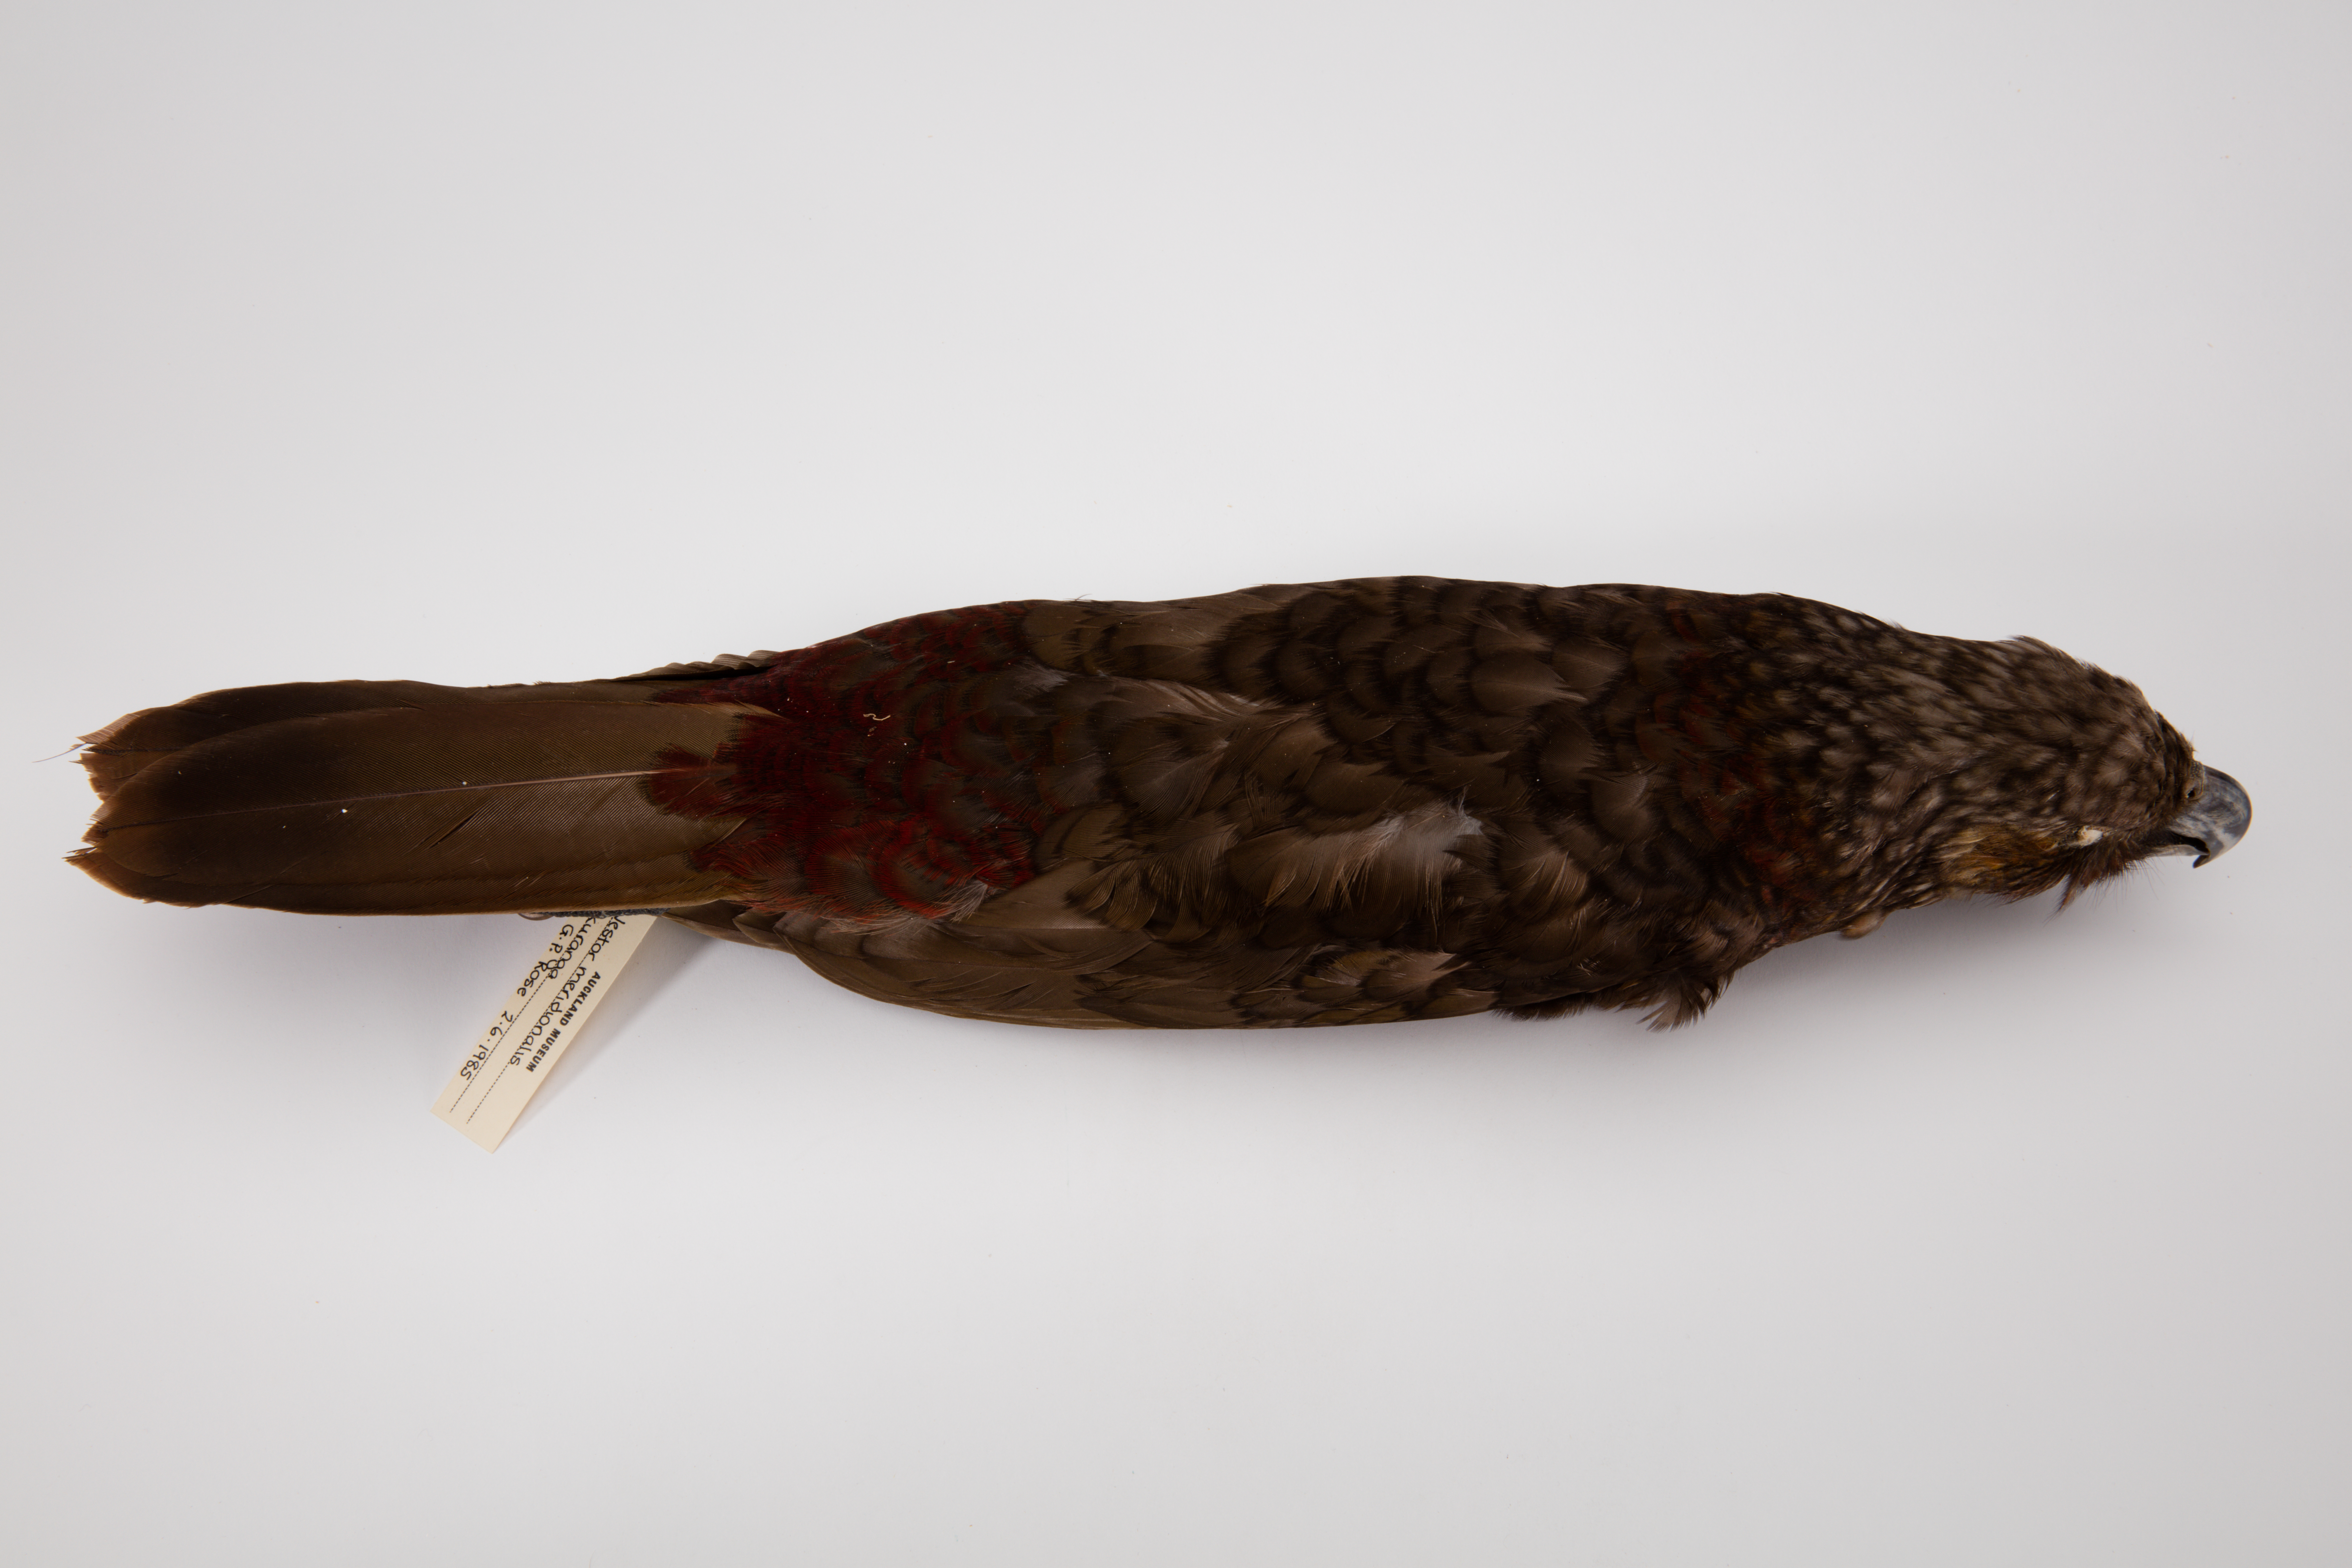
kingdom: Animalia
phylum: Chordata
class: Aves
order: Psittaciformes
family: Psittacidae
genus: Nestor
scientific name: Nestor meridionalis
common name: New zealand kaka
